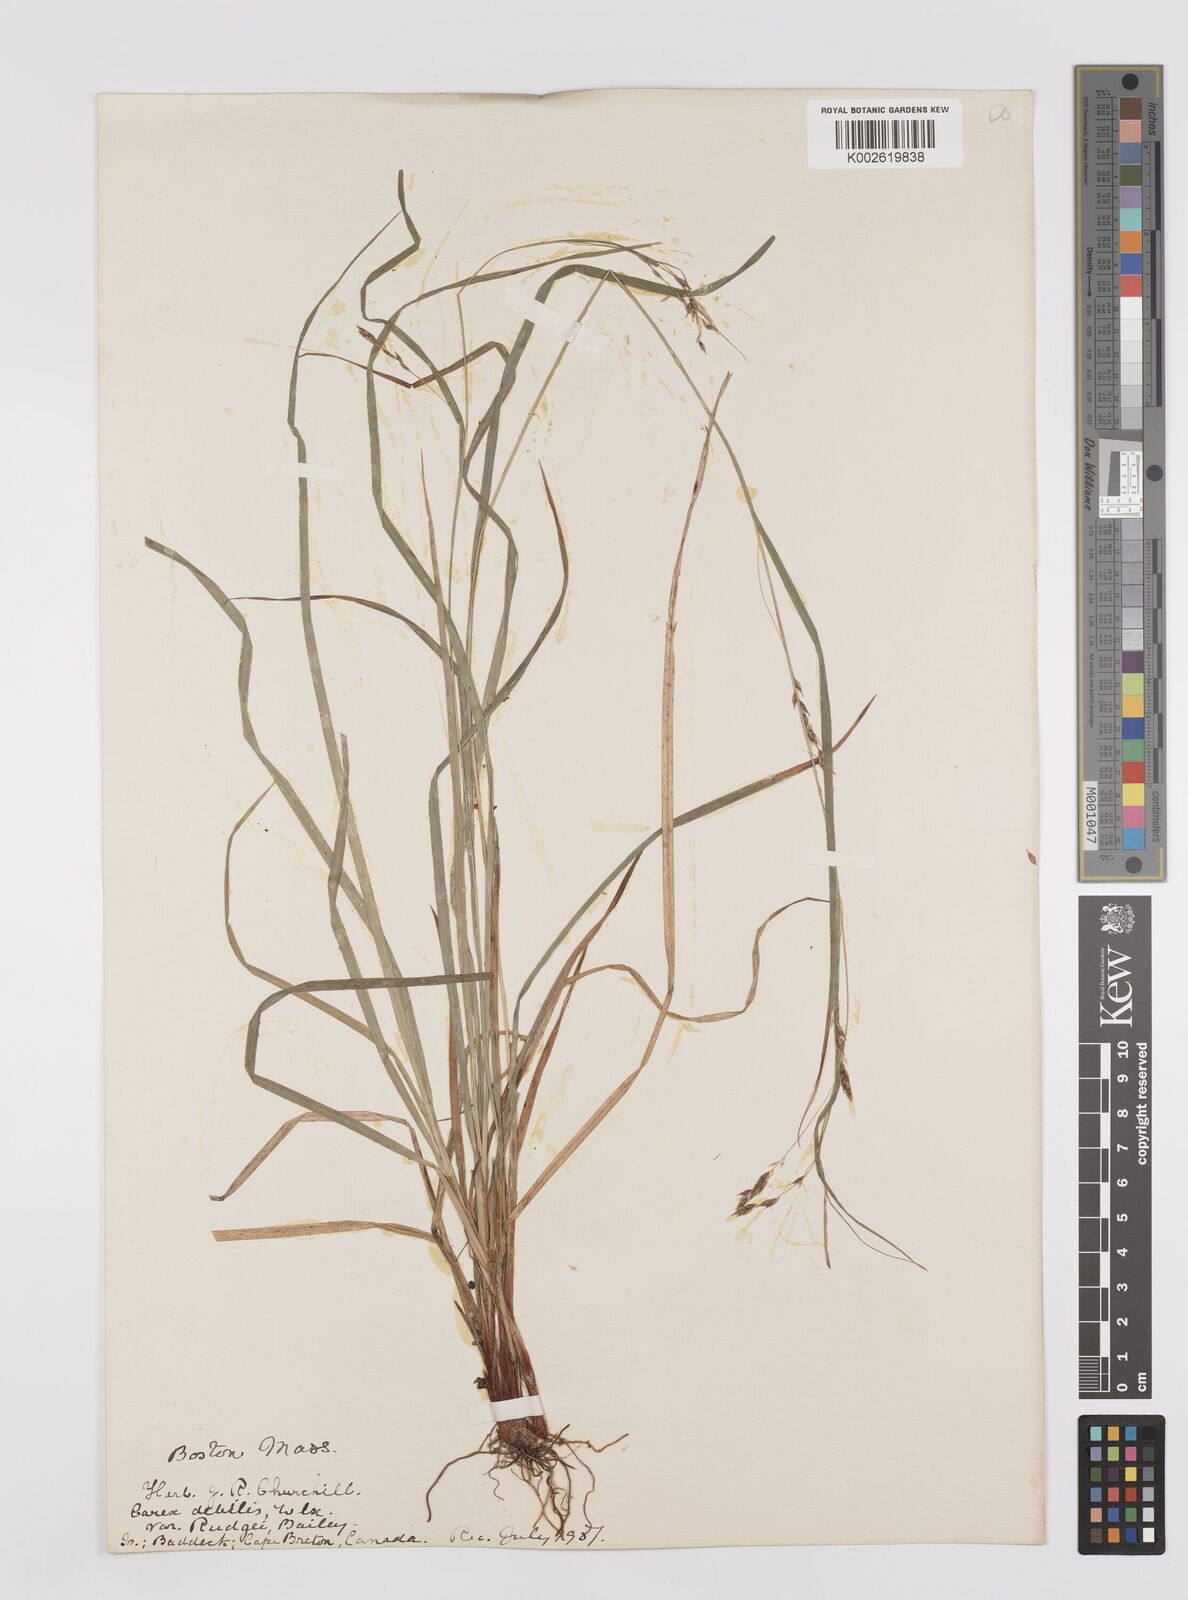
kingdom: Plantae
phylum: Tracheophyta
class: Liliopsida
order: Poales
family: Cyperaceae
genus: Carex
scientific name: Carex debilis
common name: White-edge sedge
